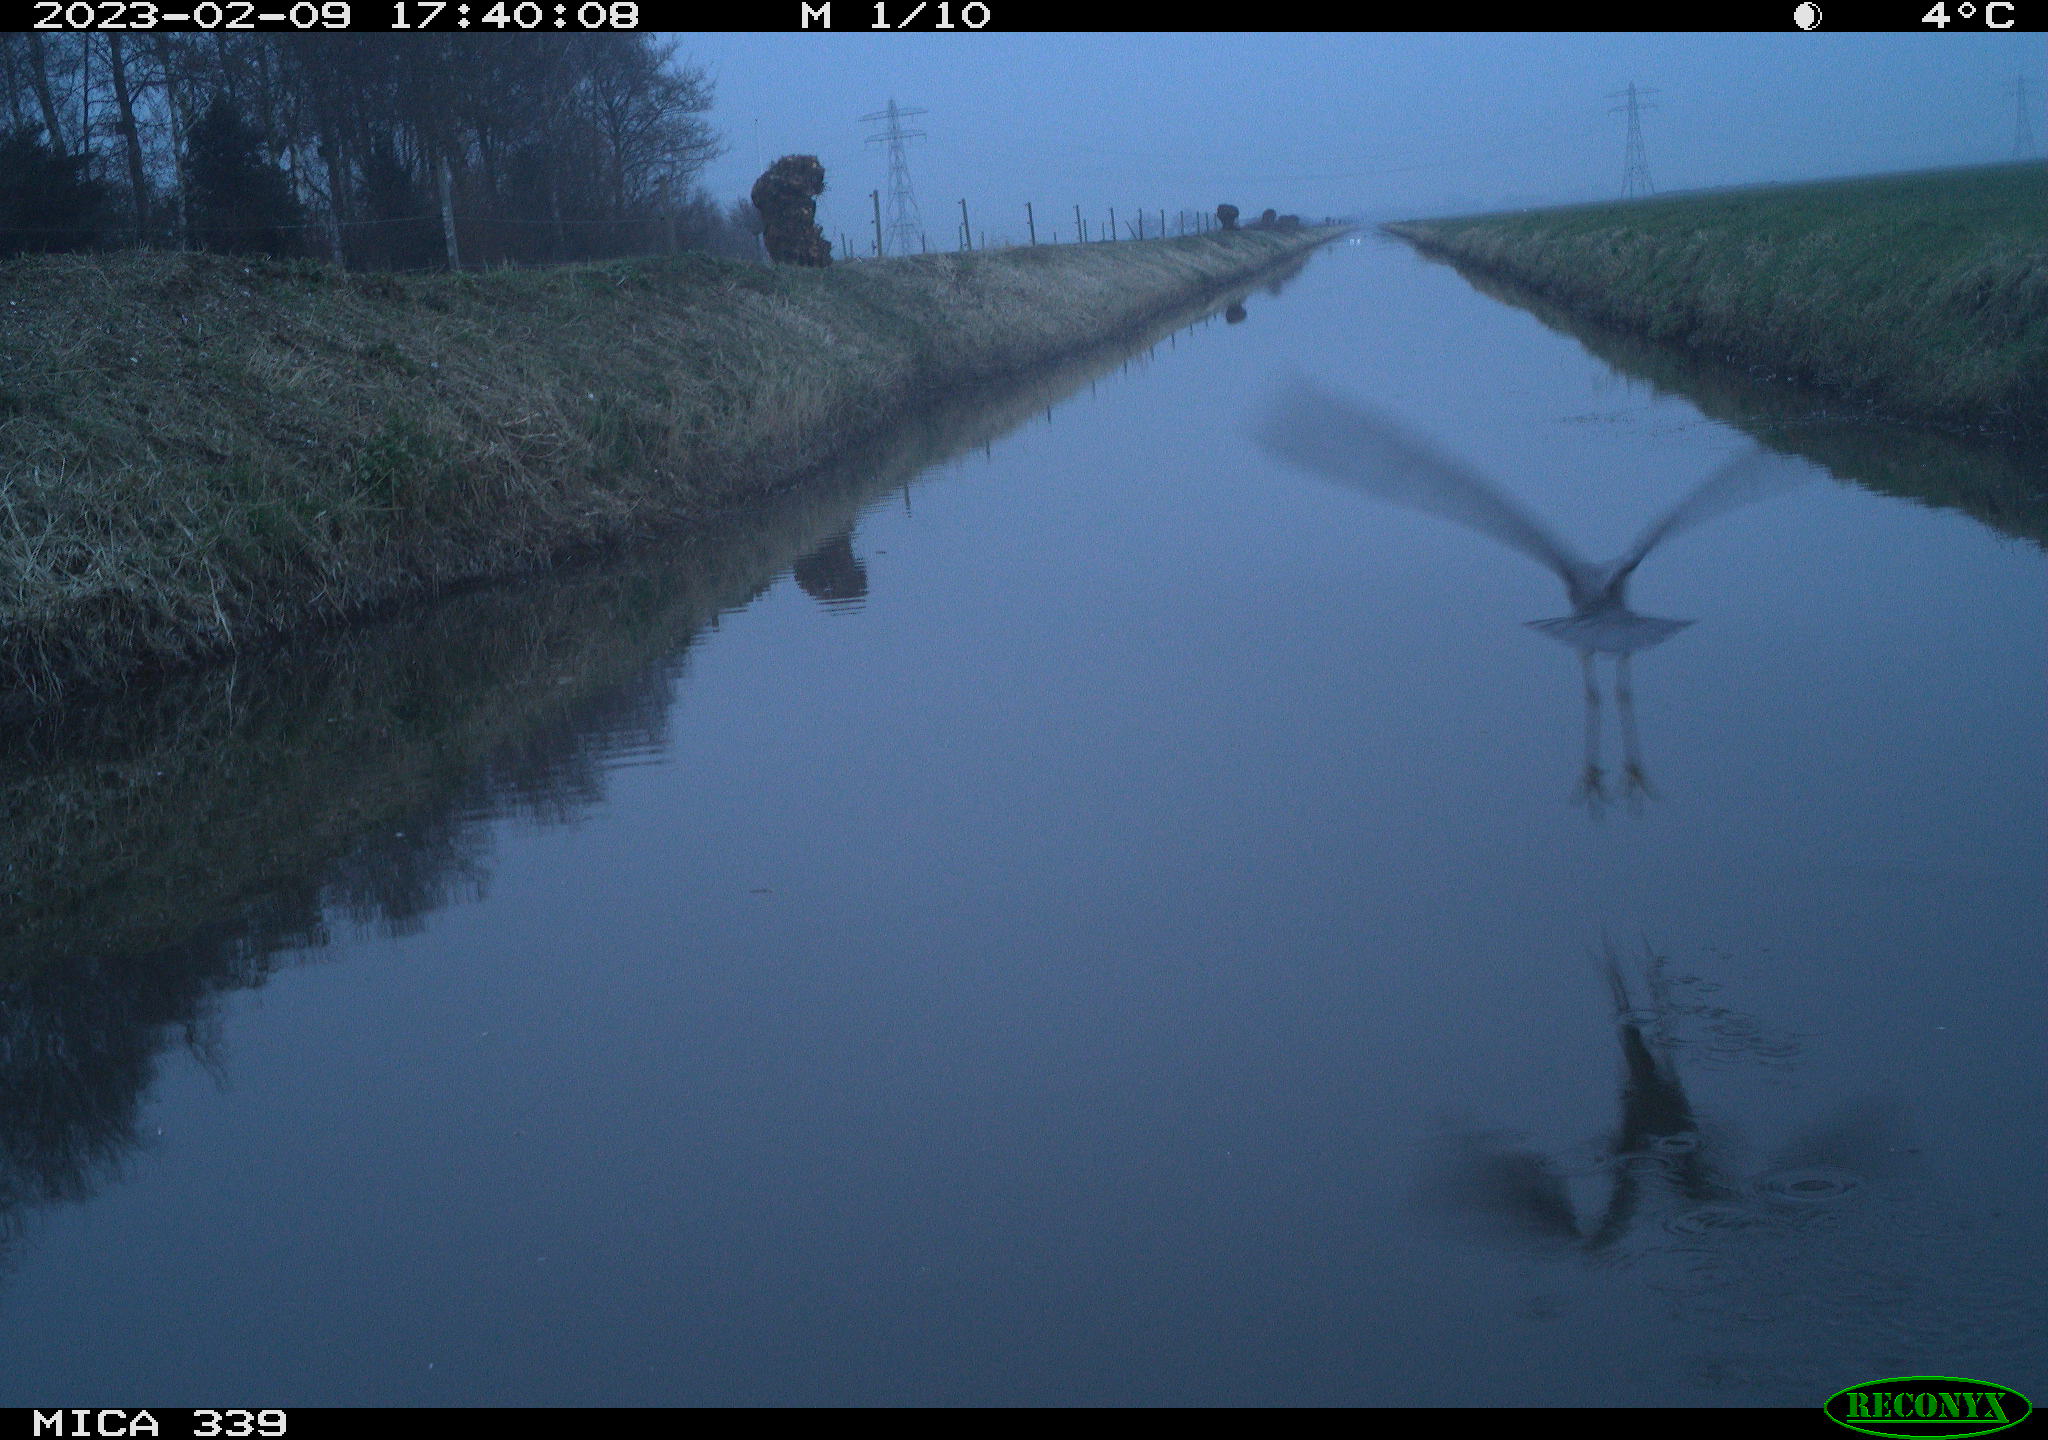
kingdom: Animalia
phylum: Chordata
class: Aves
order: Pelecaniformes
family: Ardeidae
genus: Ardea
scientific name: Ardea cinerea
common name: Grey heron
